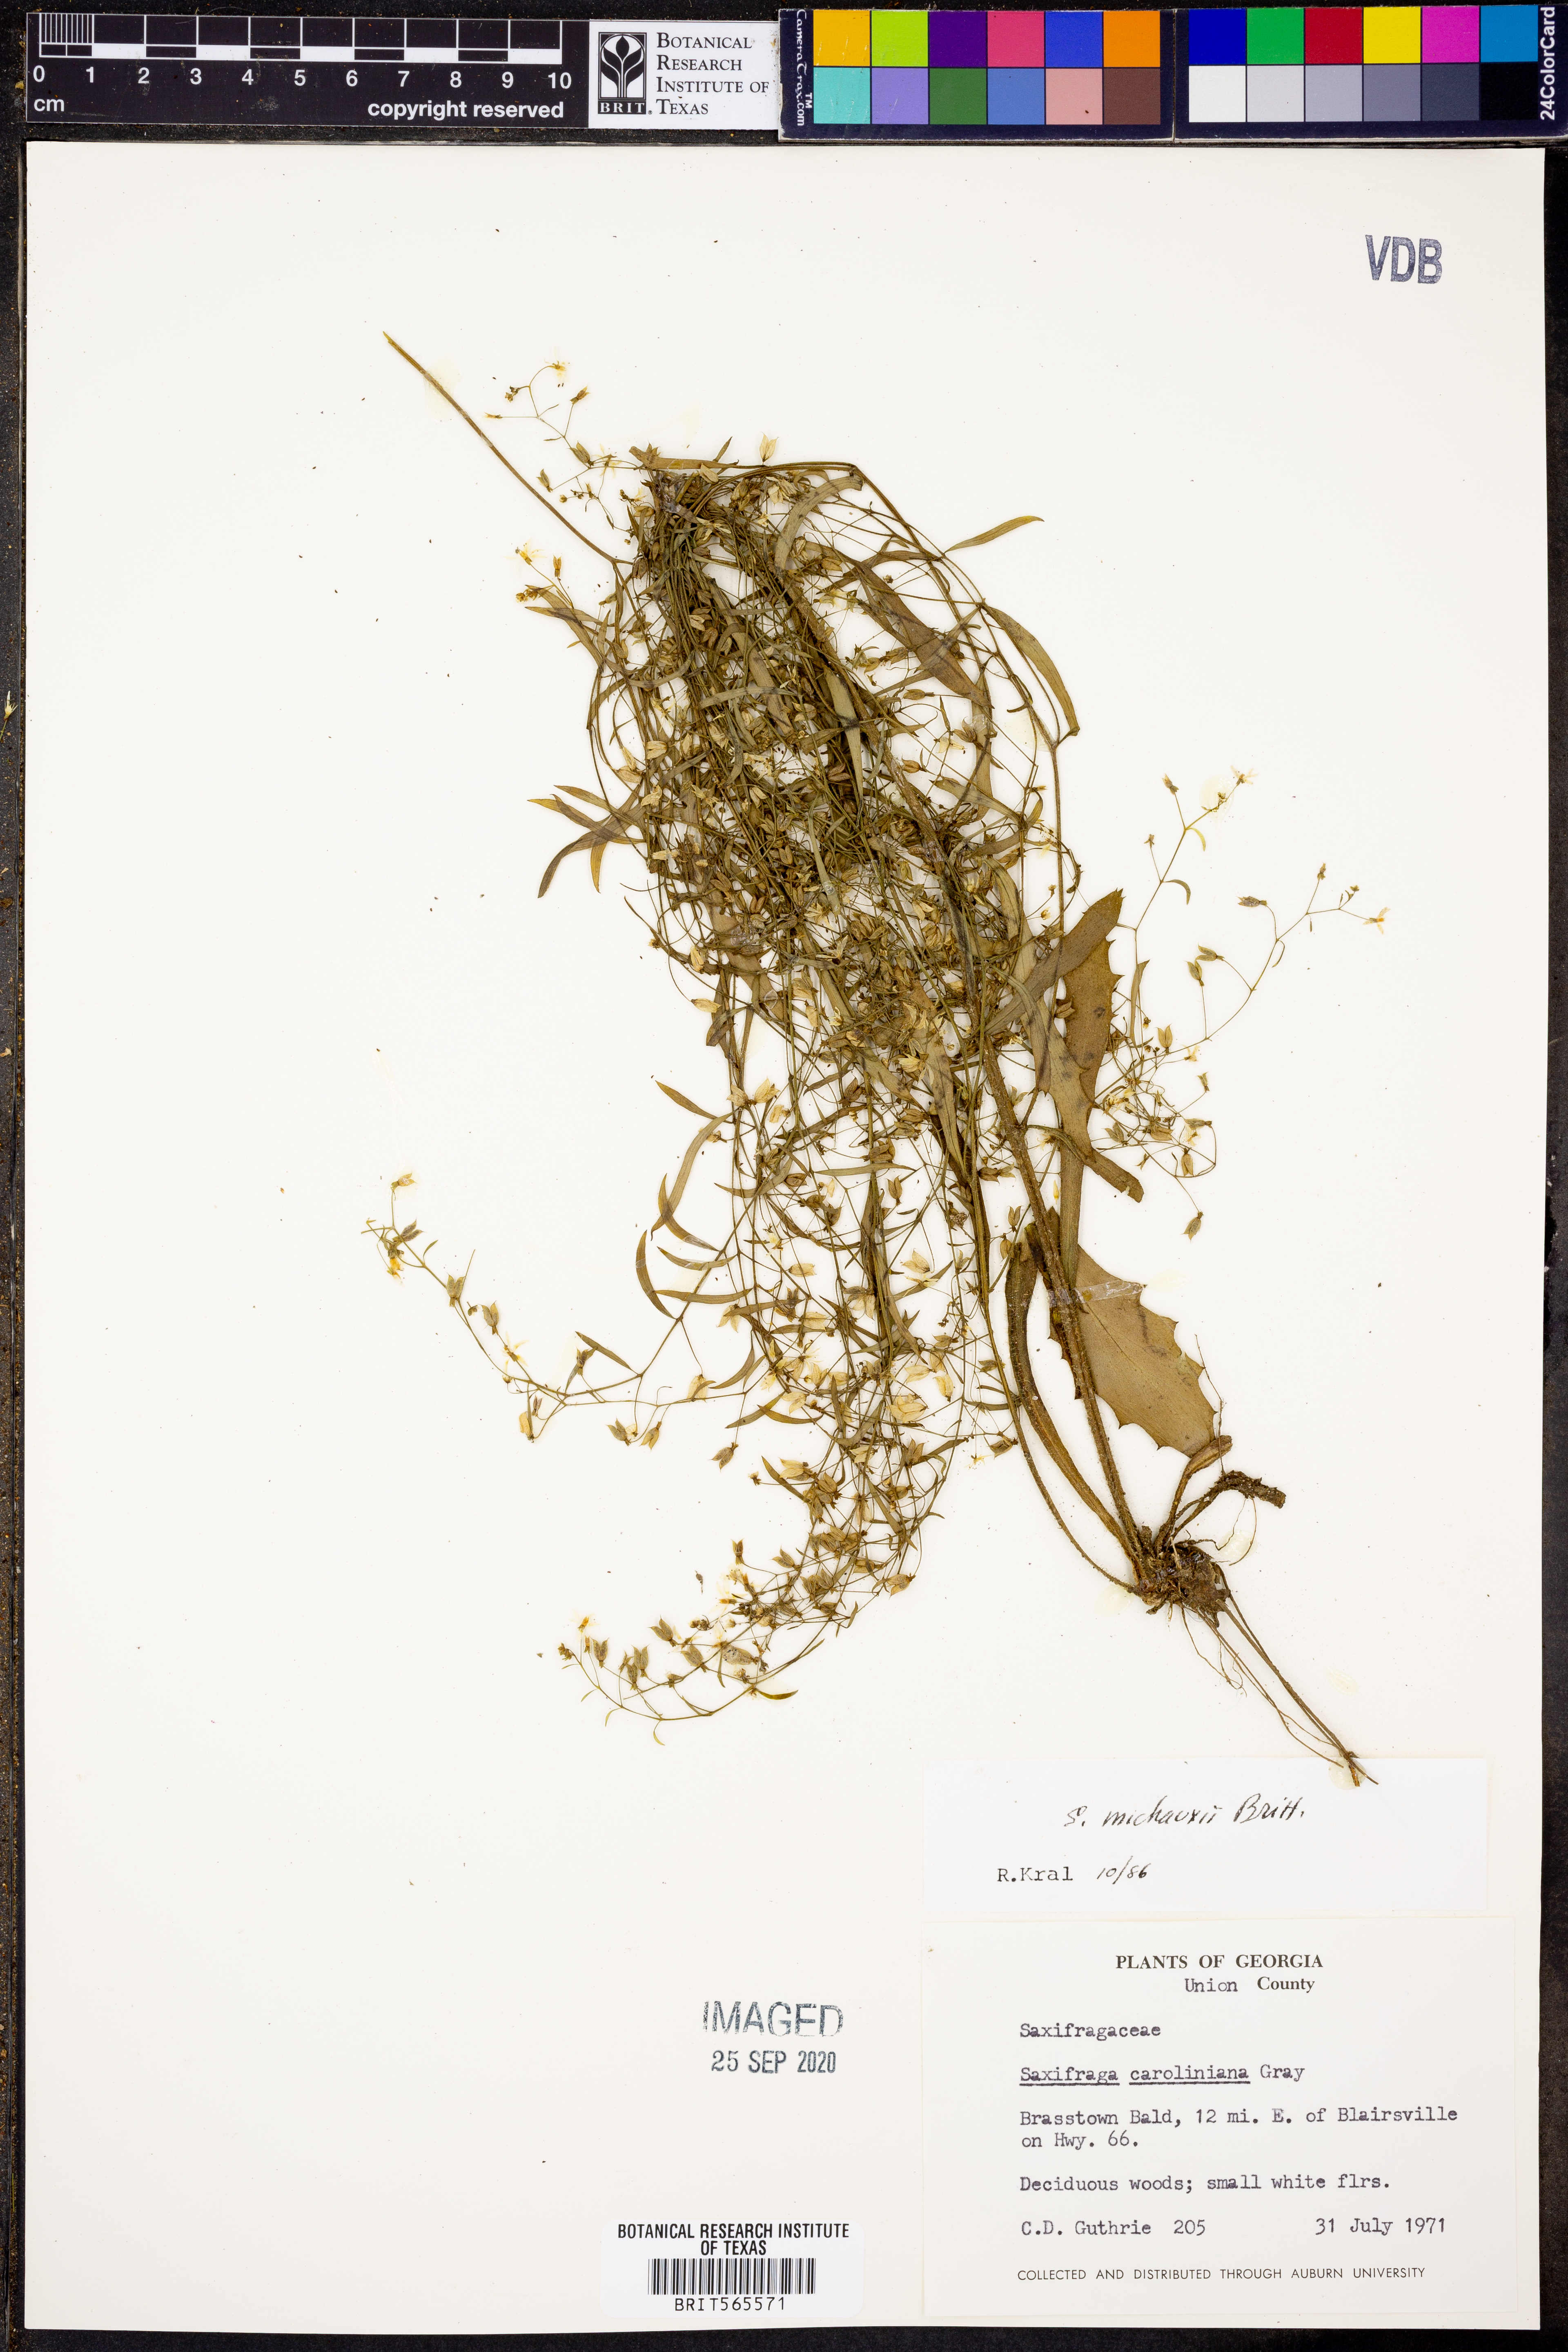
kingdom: Plantae
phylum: Tracheophyta
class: Magnoliopsida
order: Saxifragales
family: Saxifragaceae
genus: Micranthes
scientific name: Micranthes petiolaris
